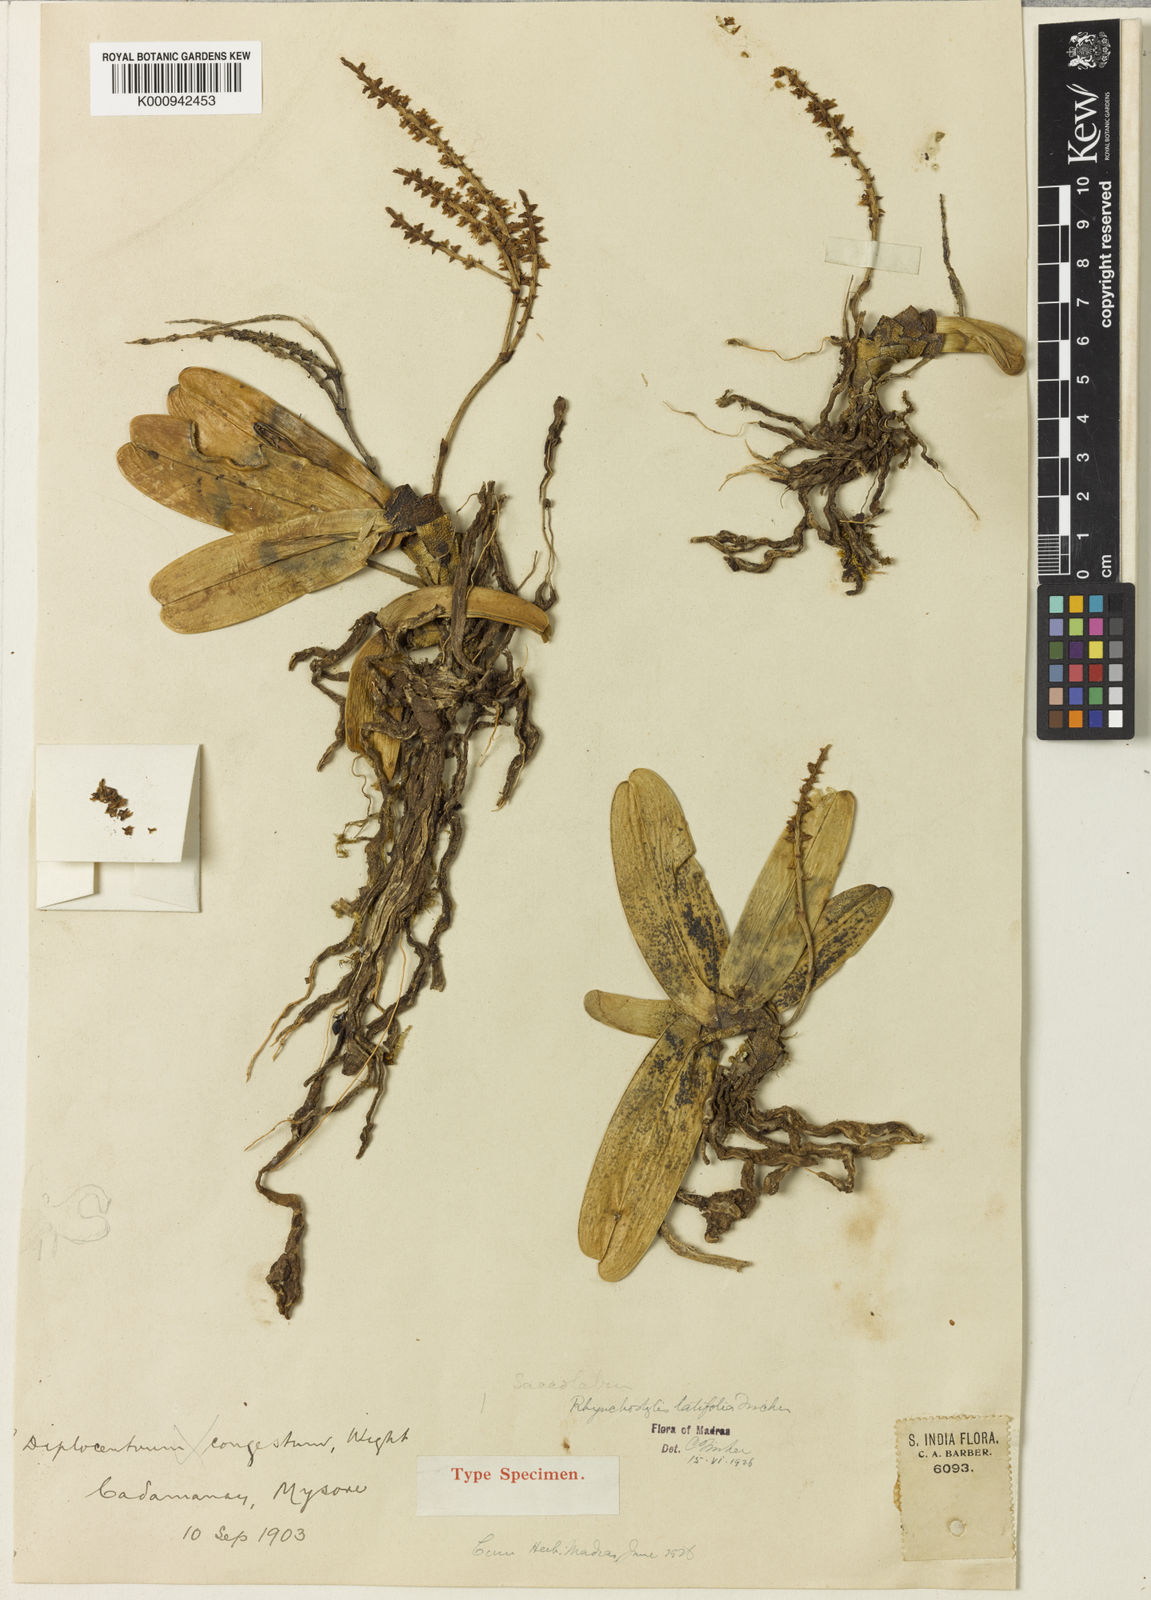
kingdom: Plantae
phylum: Tracheophyta
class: Liliopsida
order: Asparagales
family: Orchidaceae
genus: Schoenorchis
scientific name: Schoenorchis smeeana
